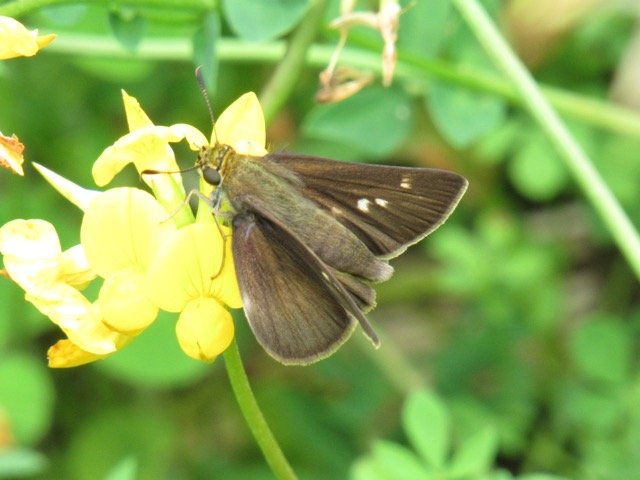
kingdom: Animalia
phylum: Arthropoda
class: Insecta
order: Lepidoptera
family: Hesperiidae
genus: Euphyes
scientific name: Euphyes vestris
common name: Dun Skipper
